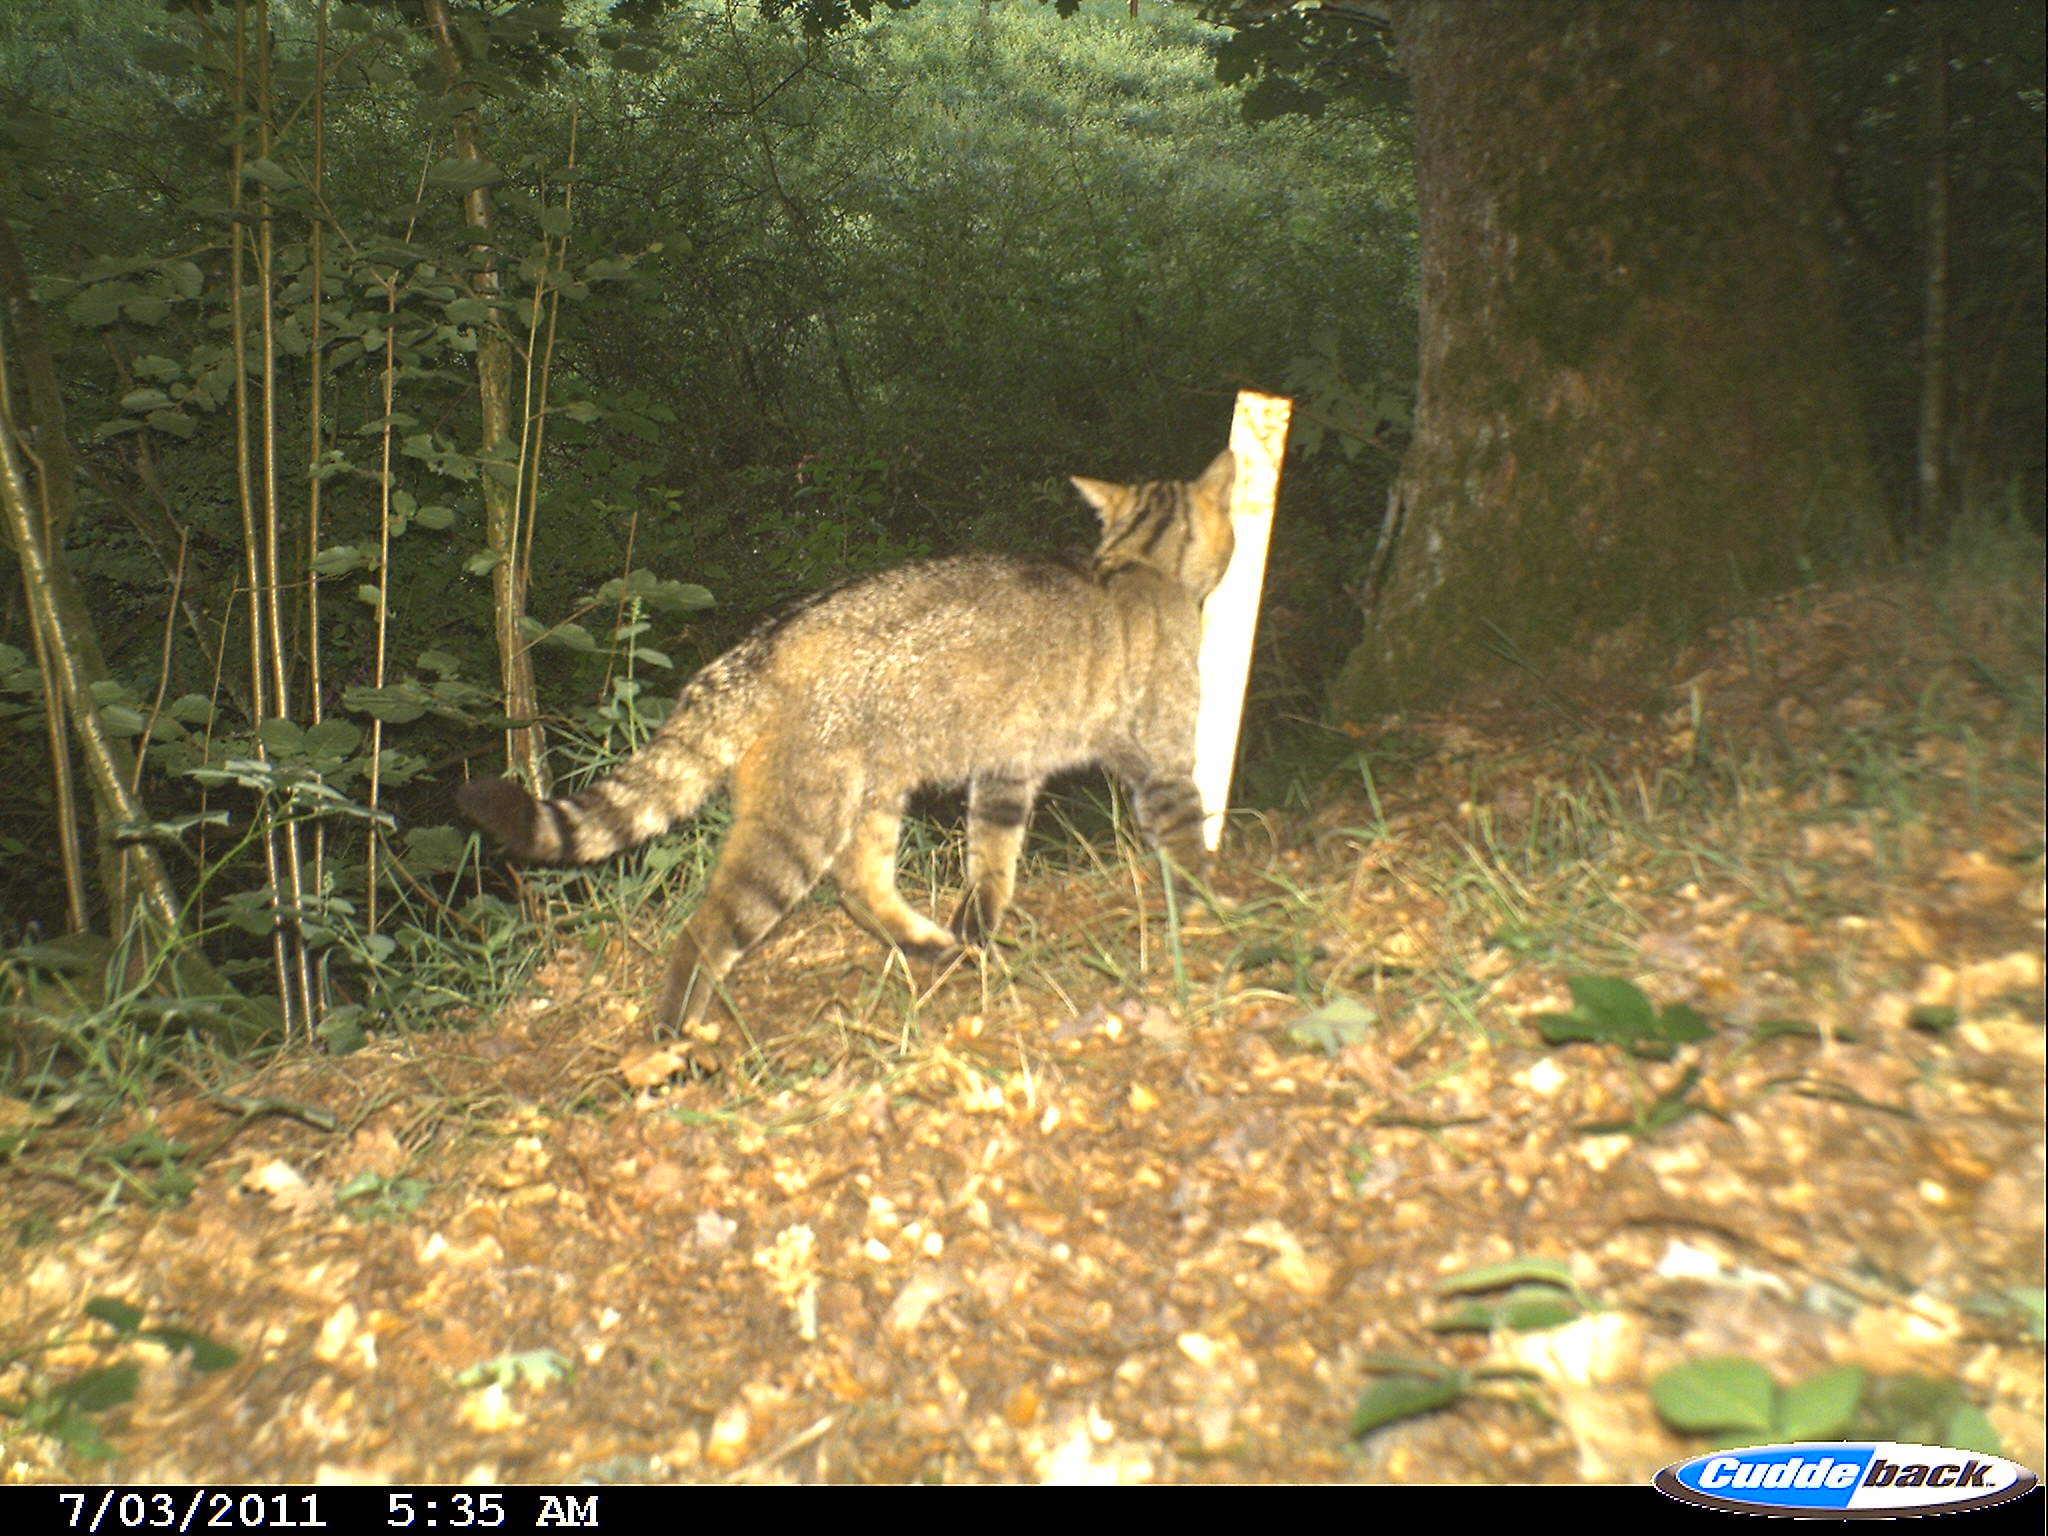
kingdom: Animalia
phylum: Chordata
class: Mammalia
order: Carnivora
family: Felidae
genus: Felis
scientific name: Felis silvestris
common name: Wildcat
